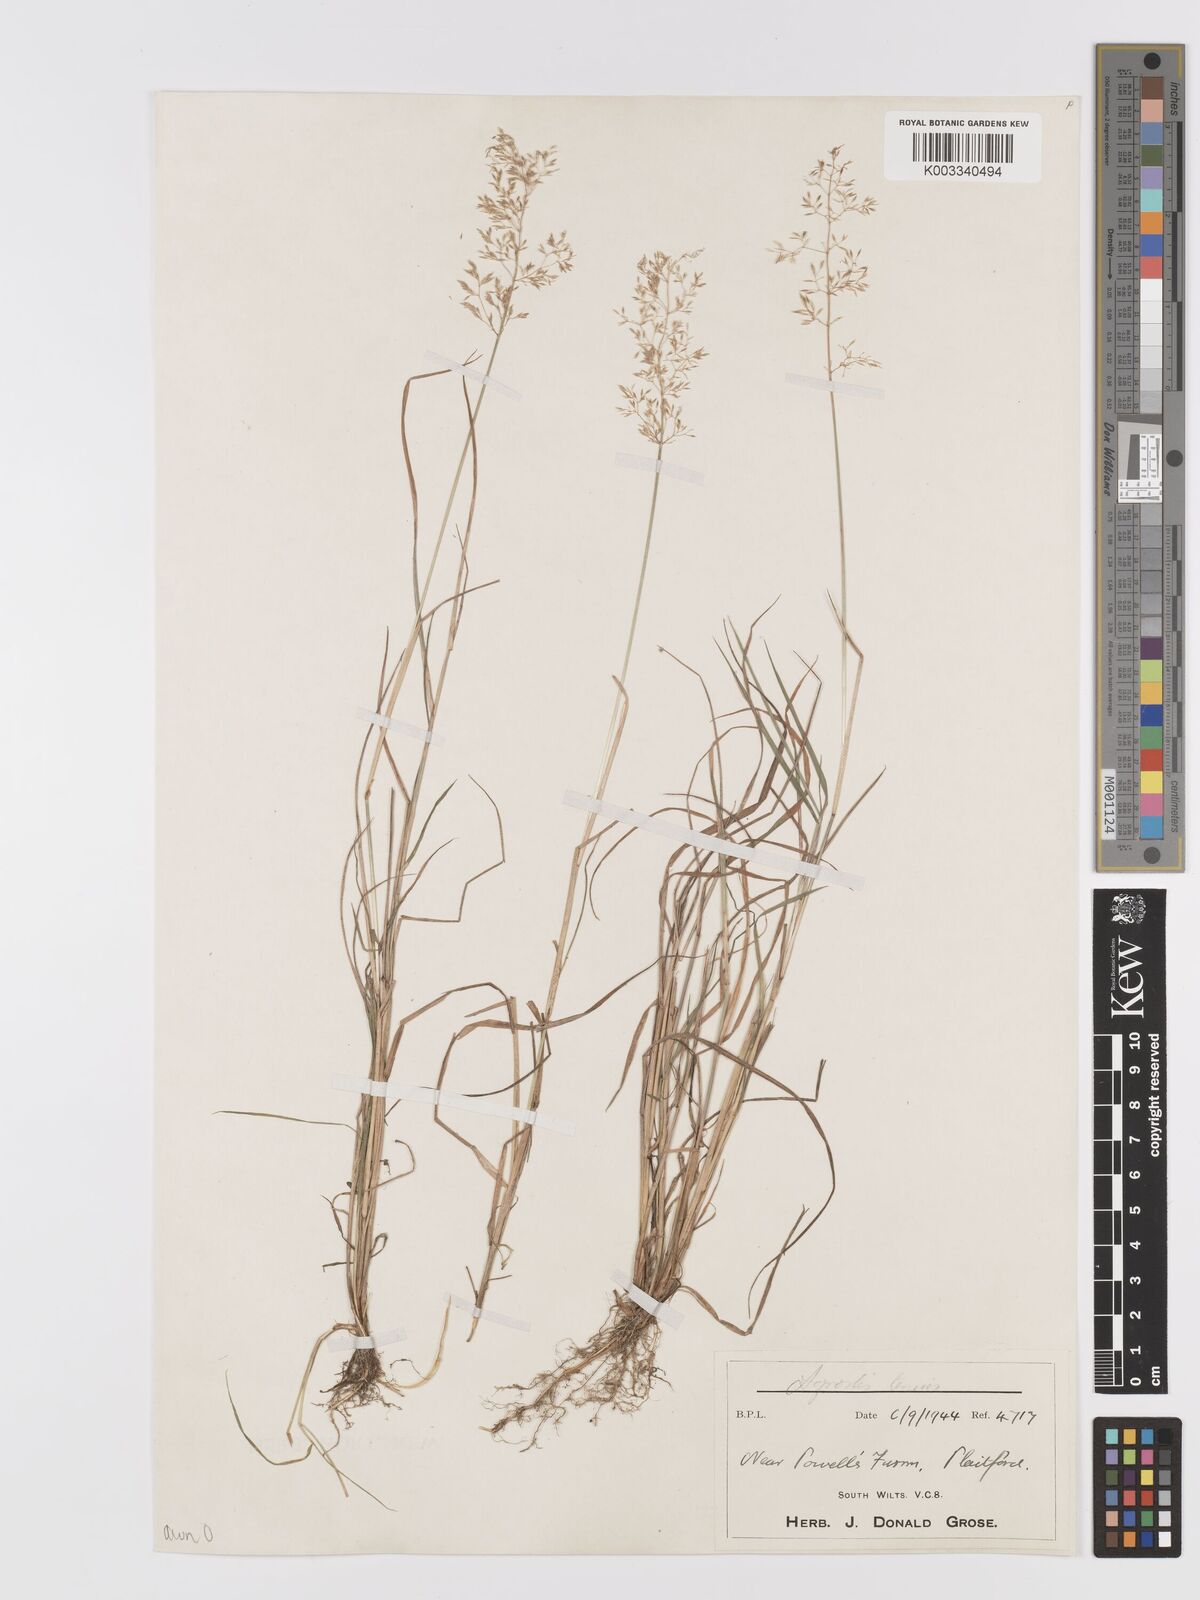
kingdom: Plantae
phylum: Tracheophyta
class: Liliopsida
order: Poales
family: Poaceae
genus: Agrostis
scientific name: Agrostis
